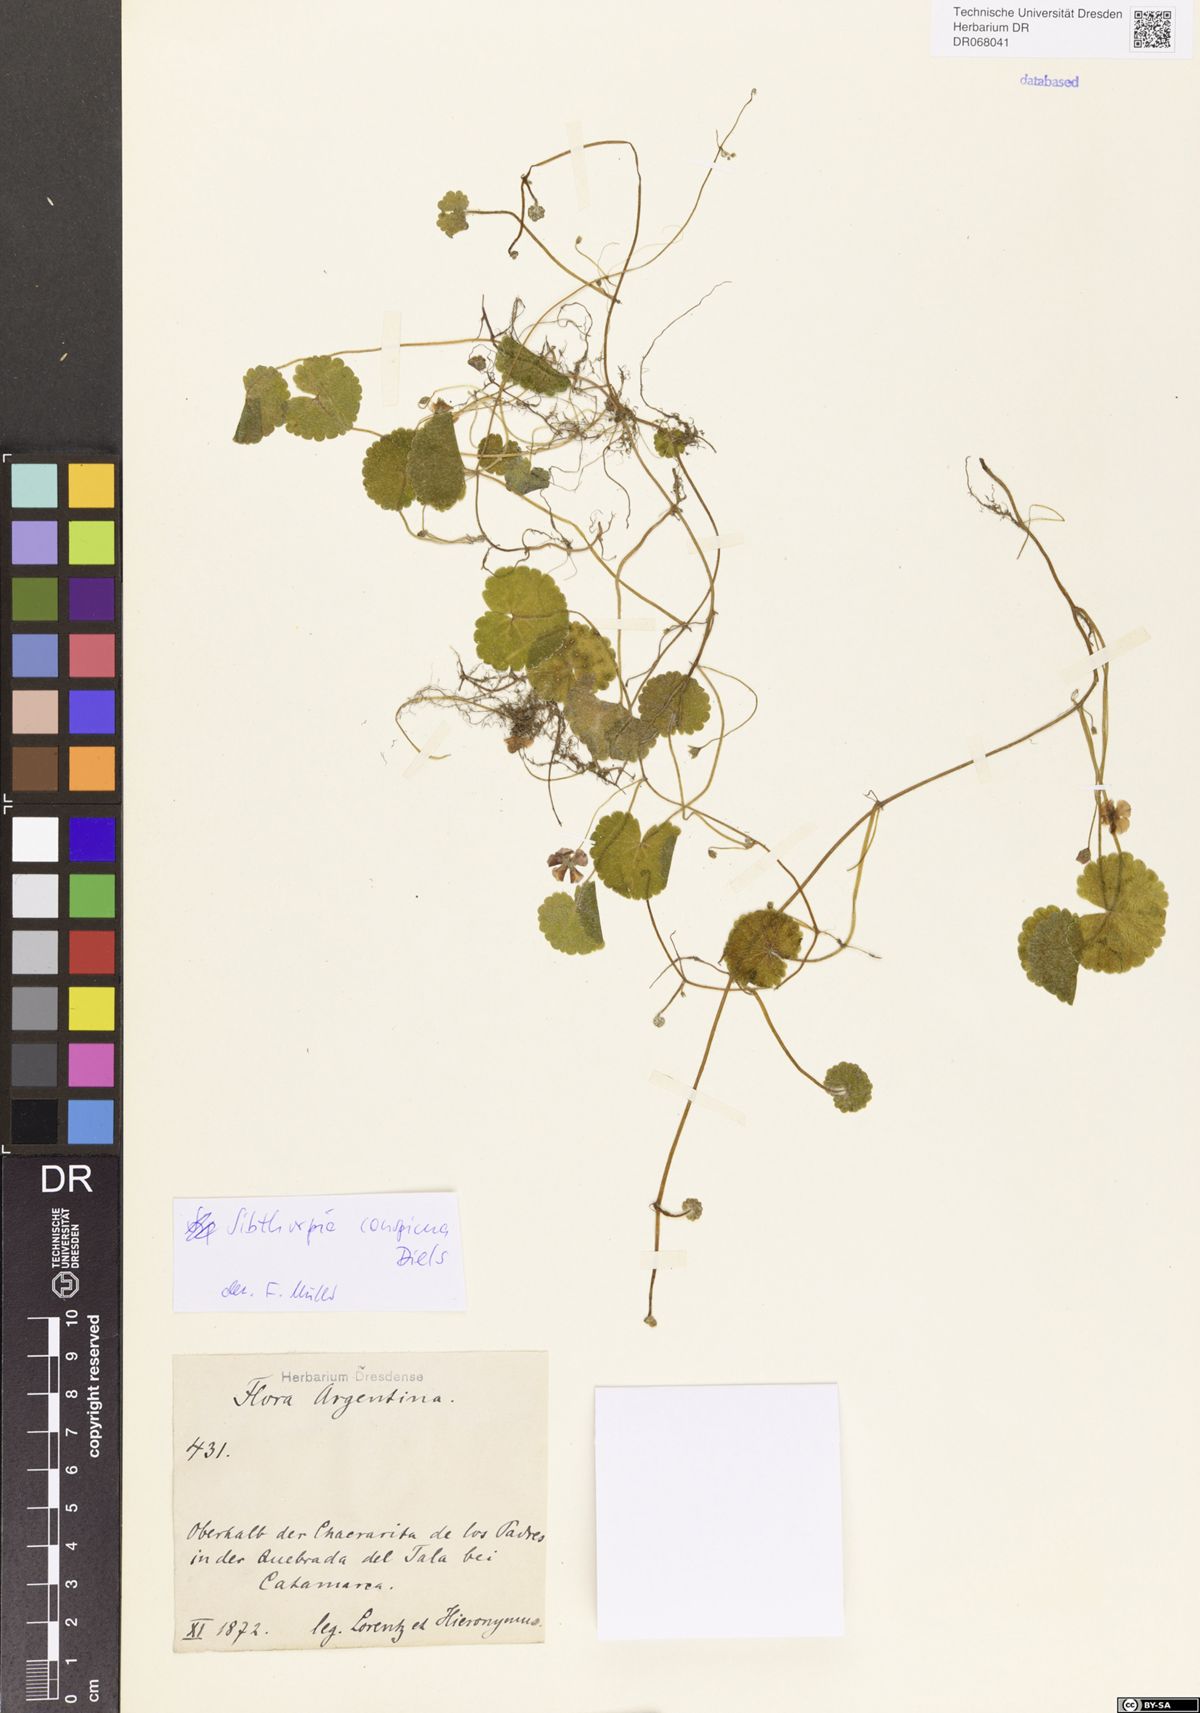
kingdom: Plantae
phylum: Tracheophyta
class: Magnoliopsida
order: Lamiales
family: Plantaginaceae
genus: Sibthorpia
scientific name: Sibthorpia conspicua
